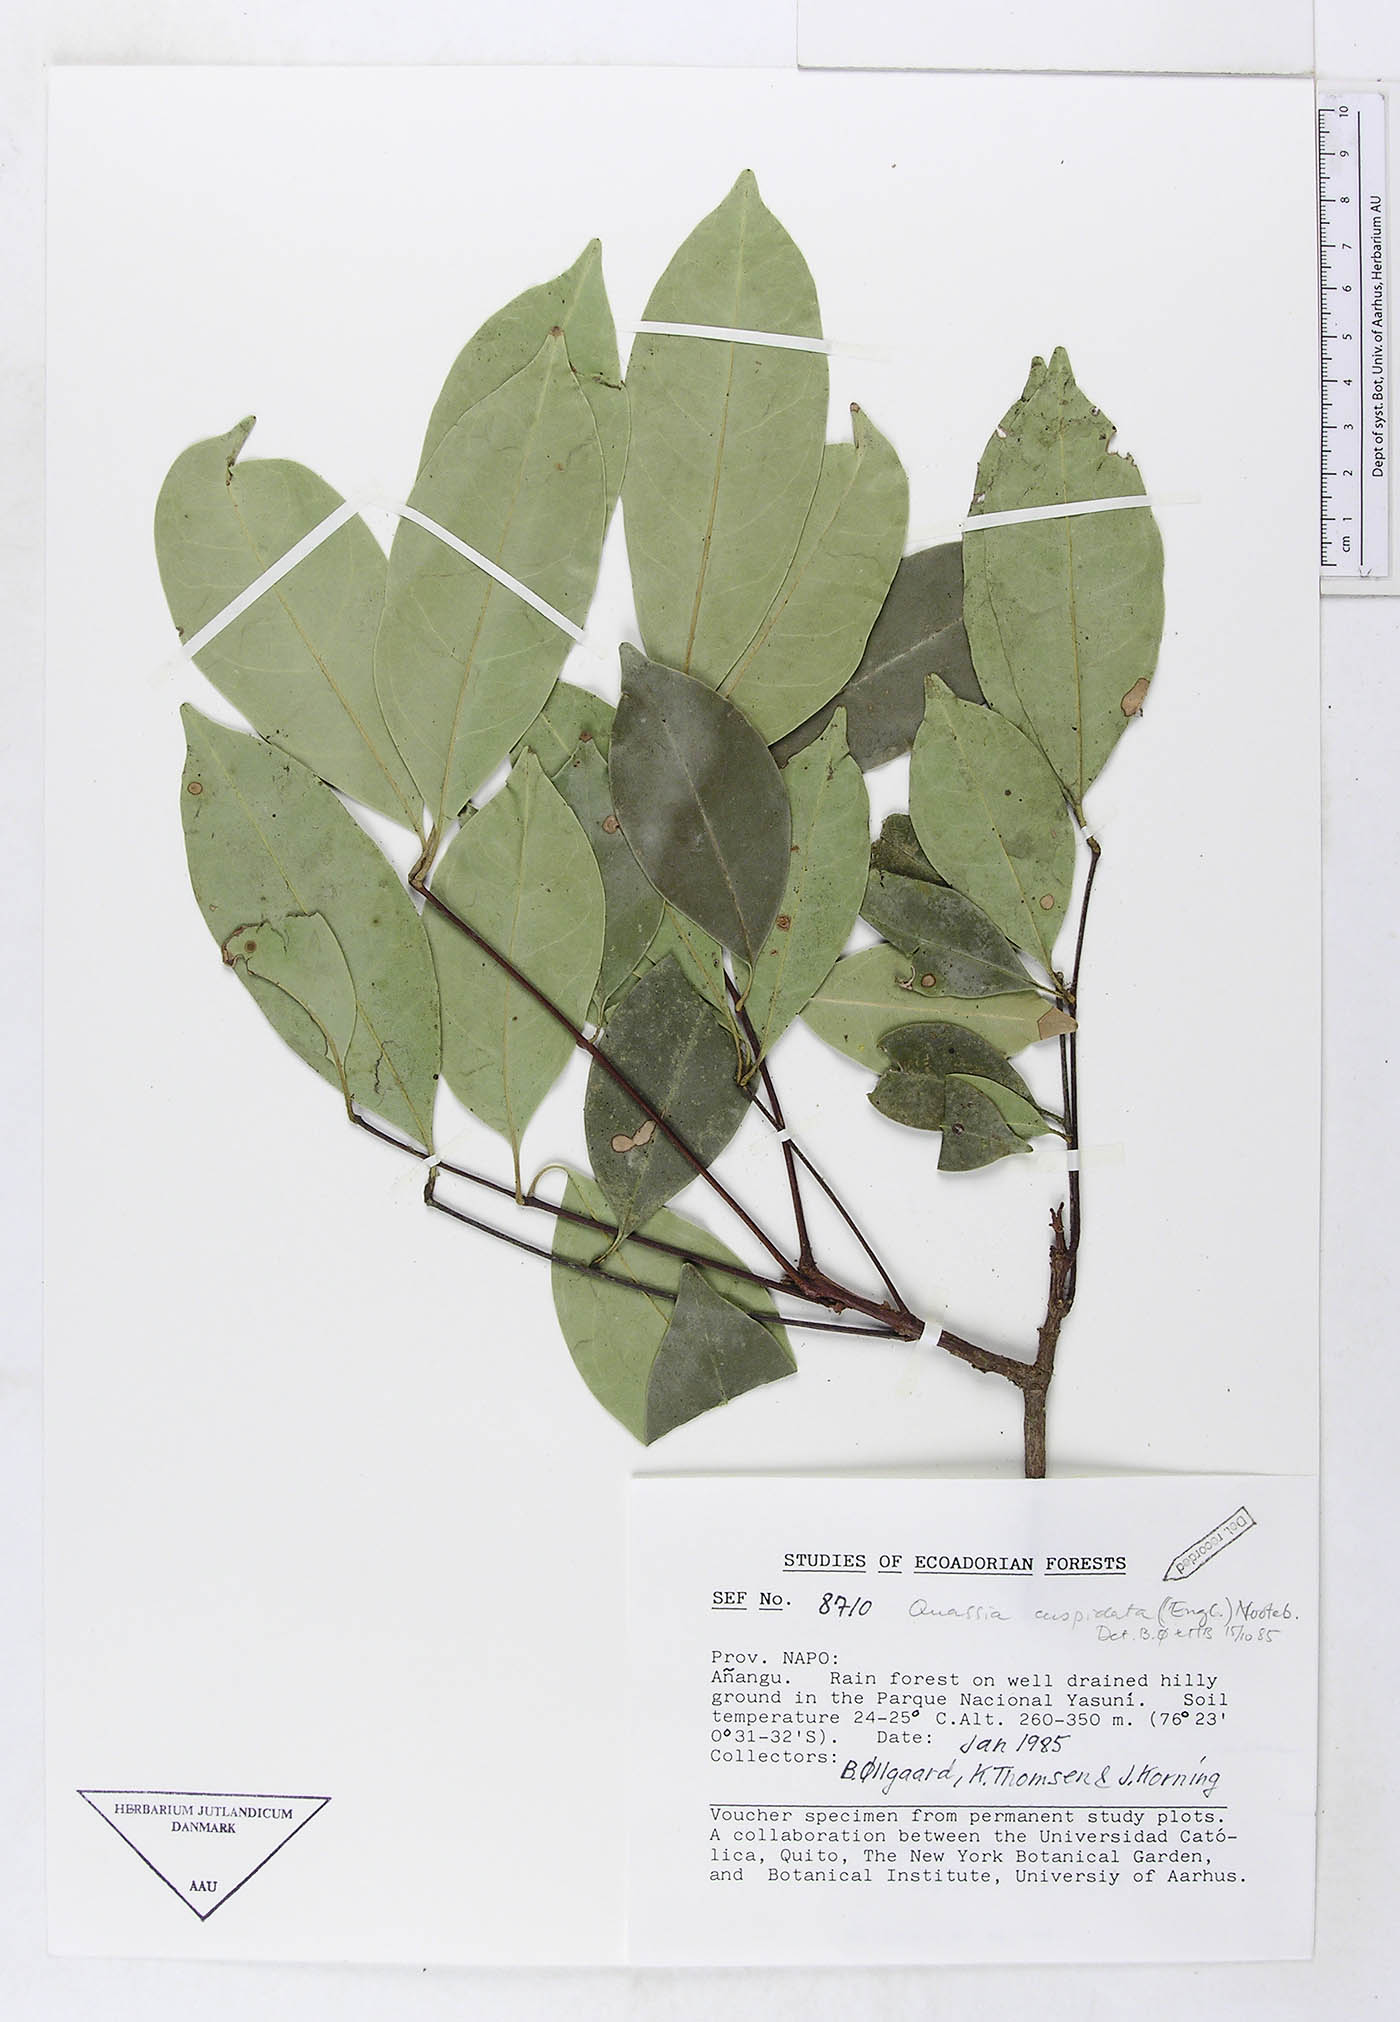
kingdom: Plantae
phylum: Tracheophyta
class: Magnoliopsida
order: Lamiales
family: Gesneriaceae
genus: Heppiella
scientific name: Heppiella ulmifolia
